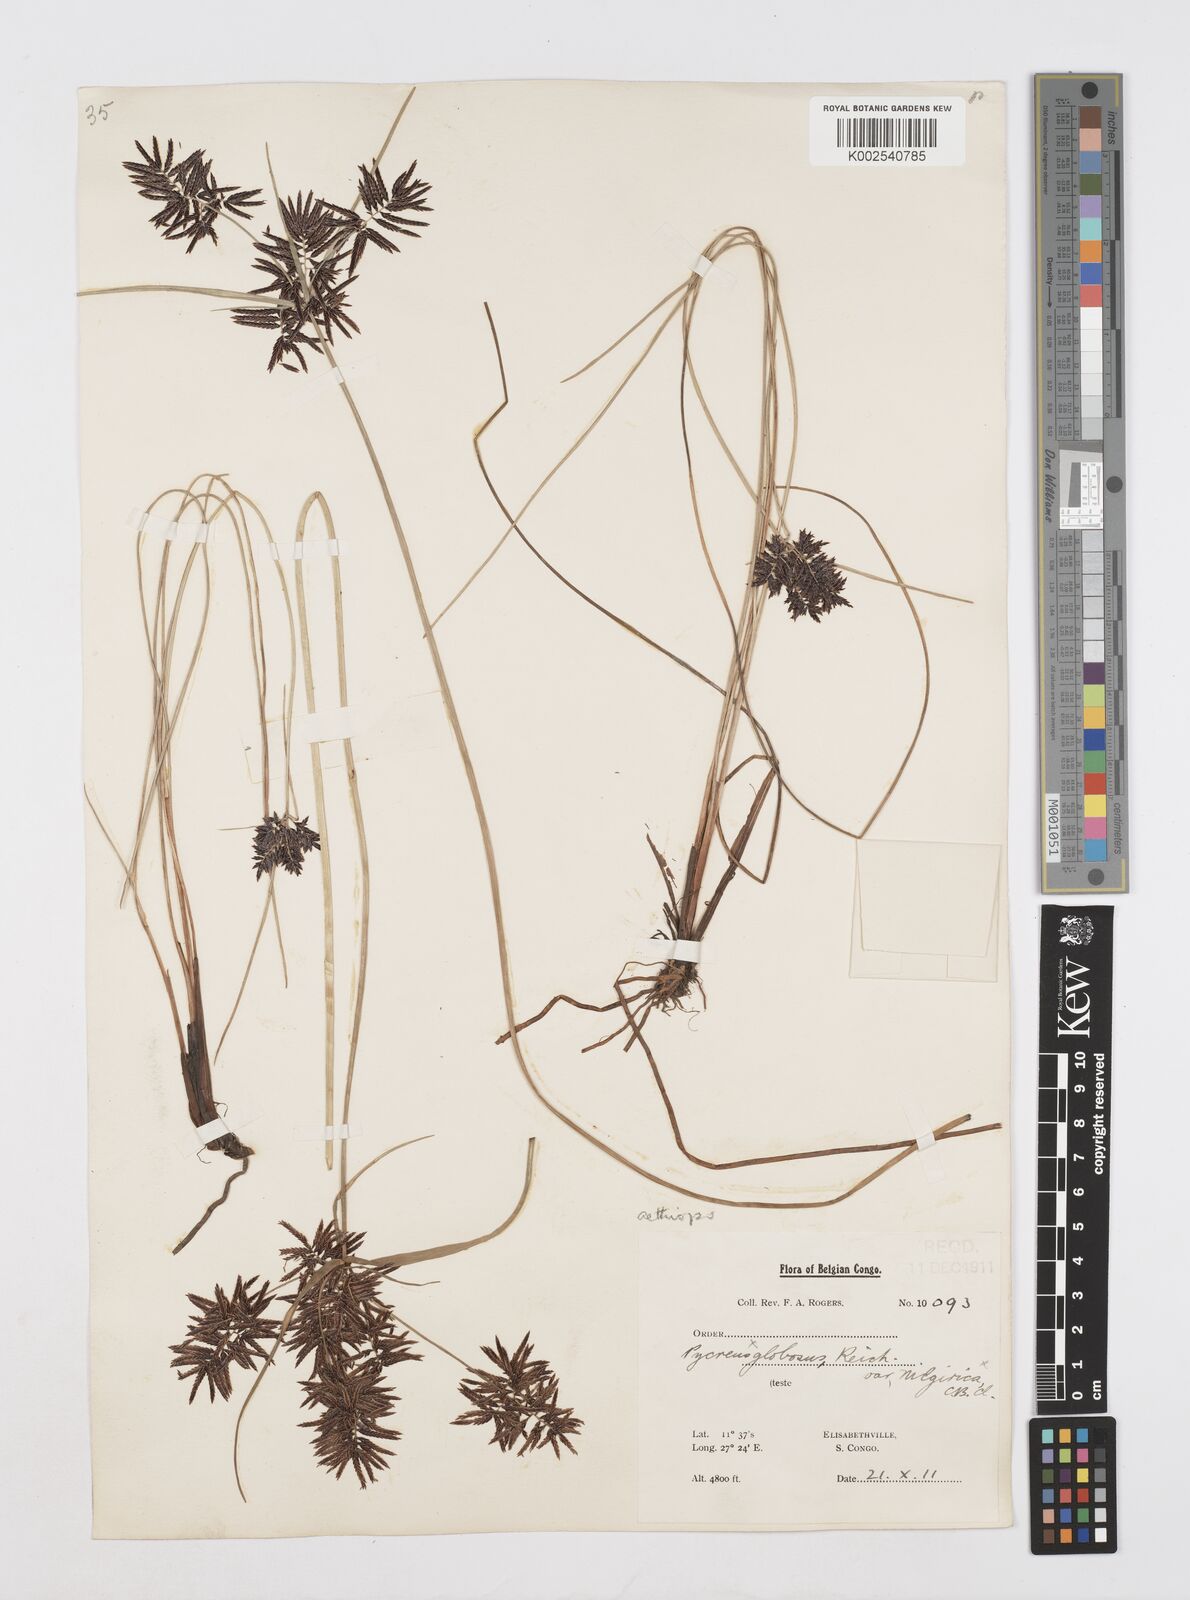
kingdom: Plantae
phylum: Tracheophyta
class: Liliopsida
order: Poales
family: Cyperaceae
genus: Cyperus
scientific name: Cyperus aethiops
